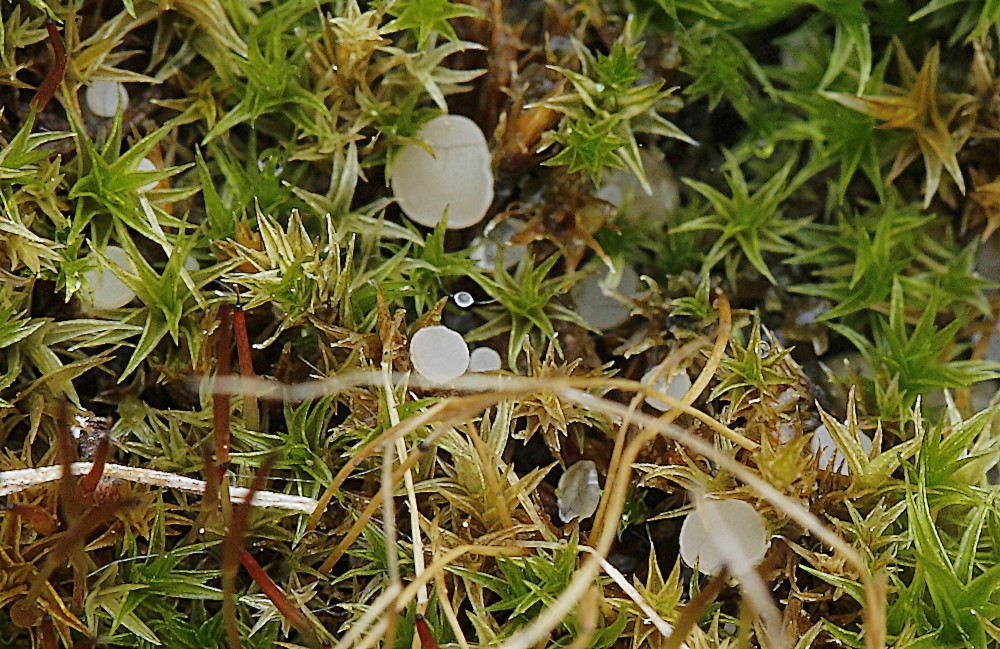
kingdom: Fungi
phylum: Ascomycota
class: Leotiomycetes
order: Helotiales
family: Helotiaceae
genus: Bryoscyphus
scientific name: Bryoscyphus dicrani
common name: bladmos-stilkskive
